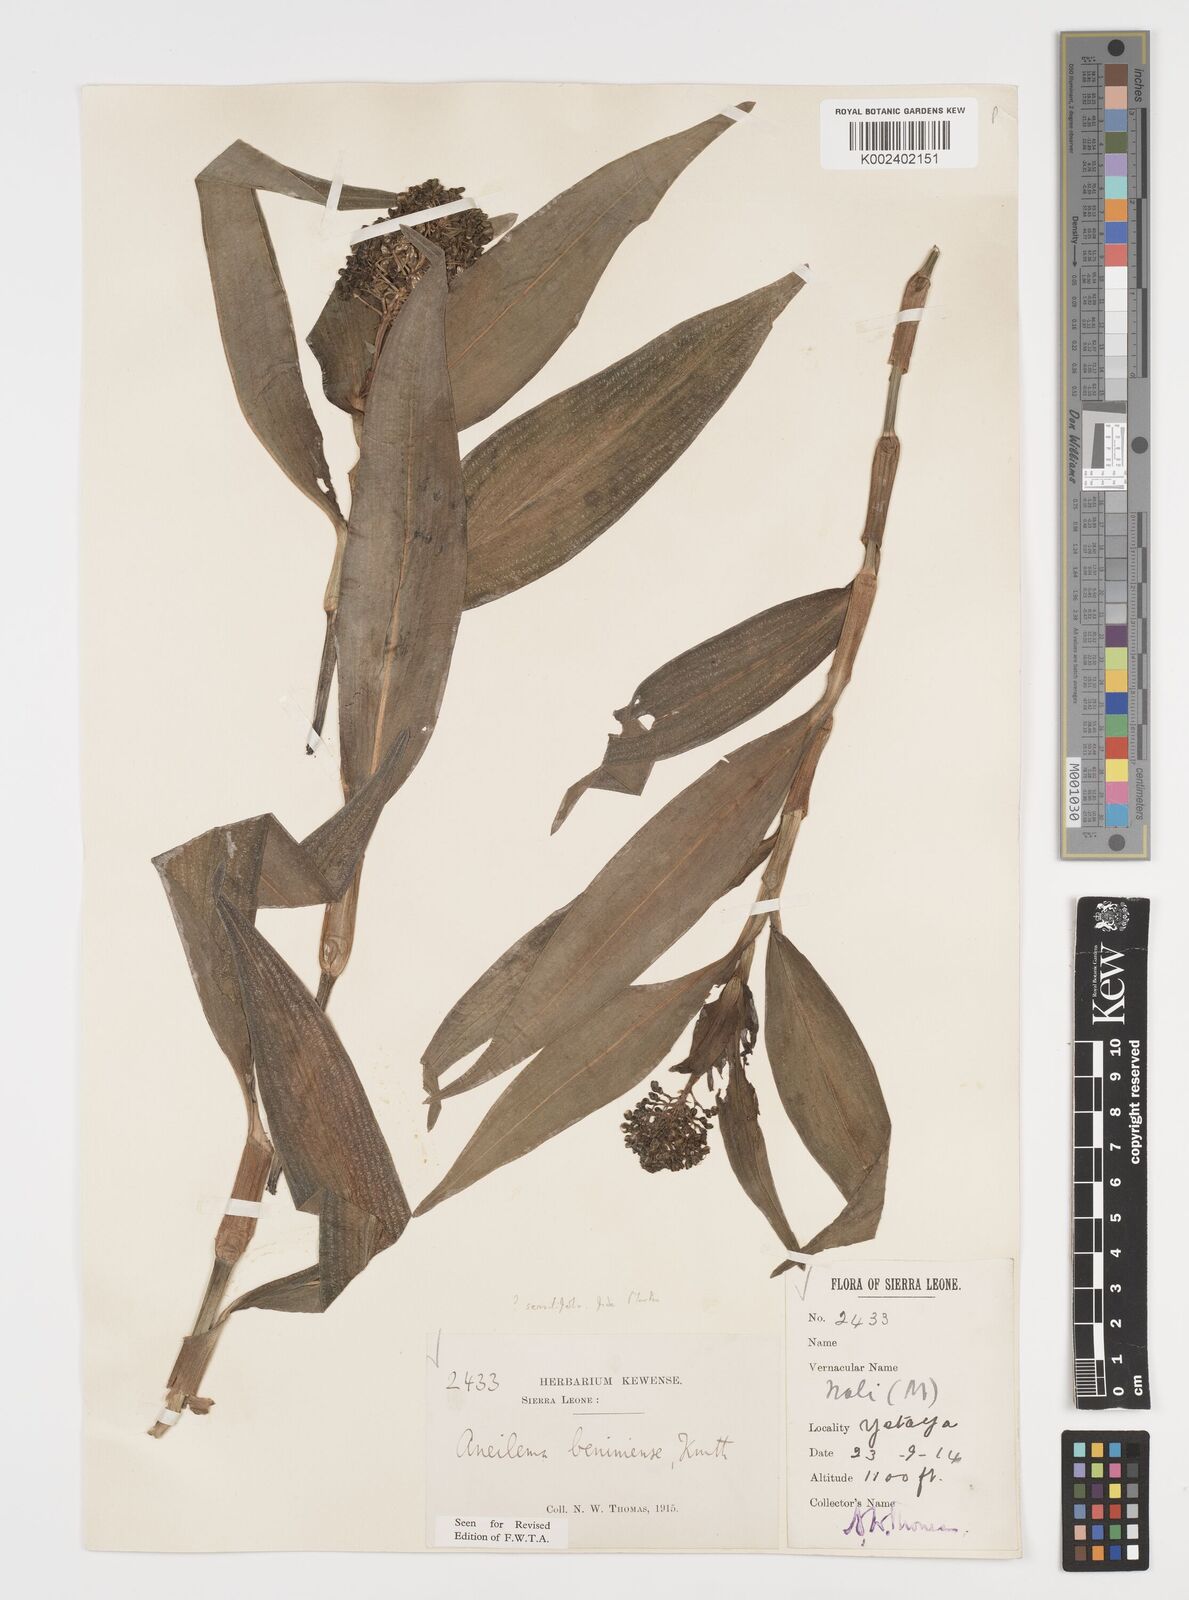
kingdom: Plantae
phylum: Tracheophyta
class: Liliopsida
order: Commelinales
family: Commelinaceae
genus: Aneilema
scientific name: Aneilema beniniense
